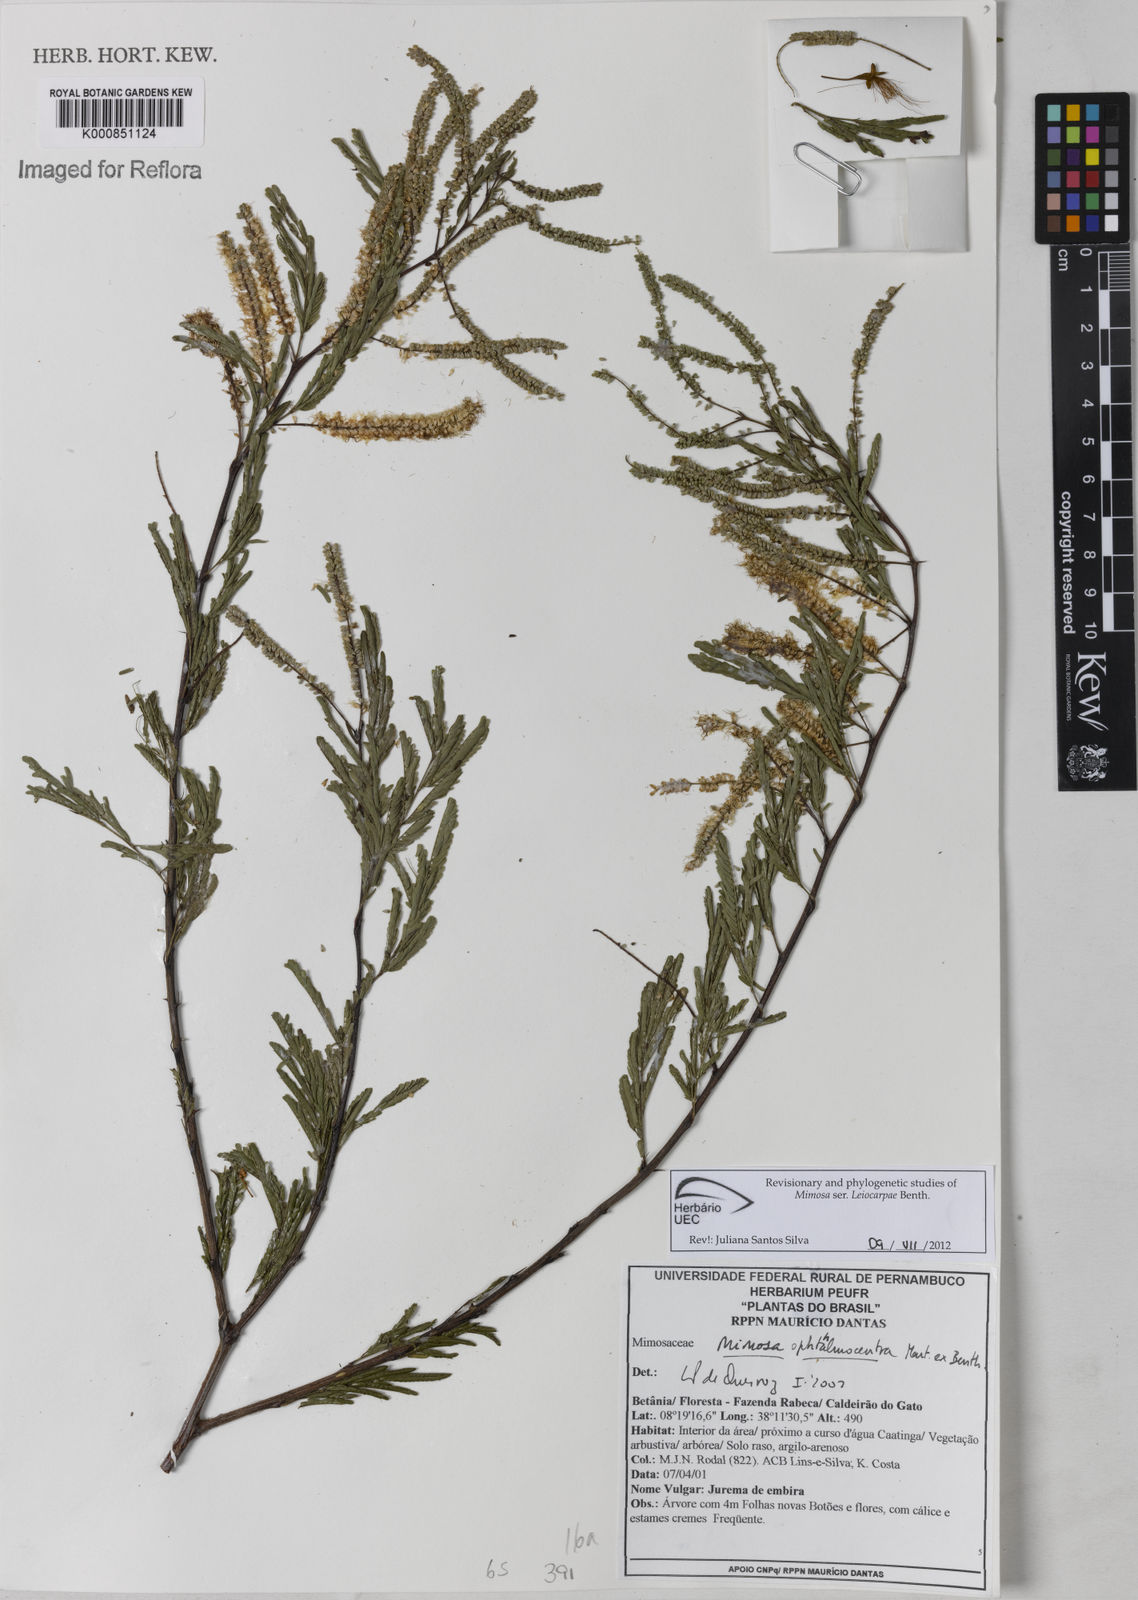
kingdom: Plantae
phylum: Tracheophyta
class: Magnoliopsida
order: Fabales
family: Fabaceae
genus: Mimosa
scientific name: Mimosa ophthalmocentra
